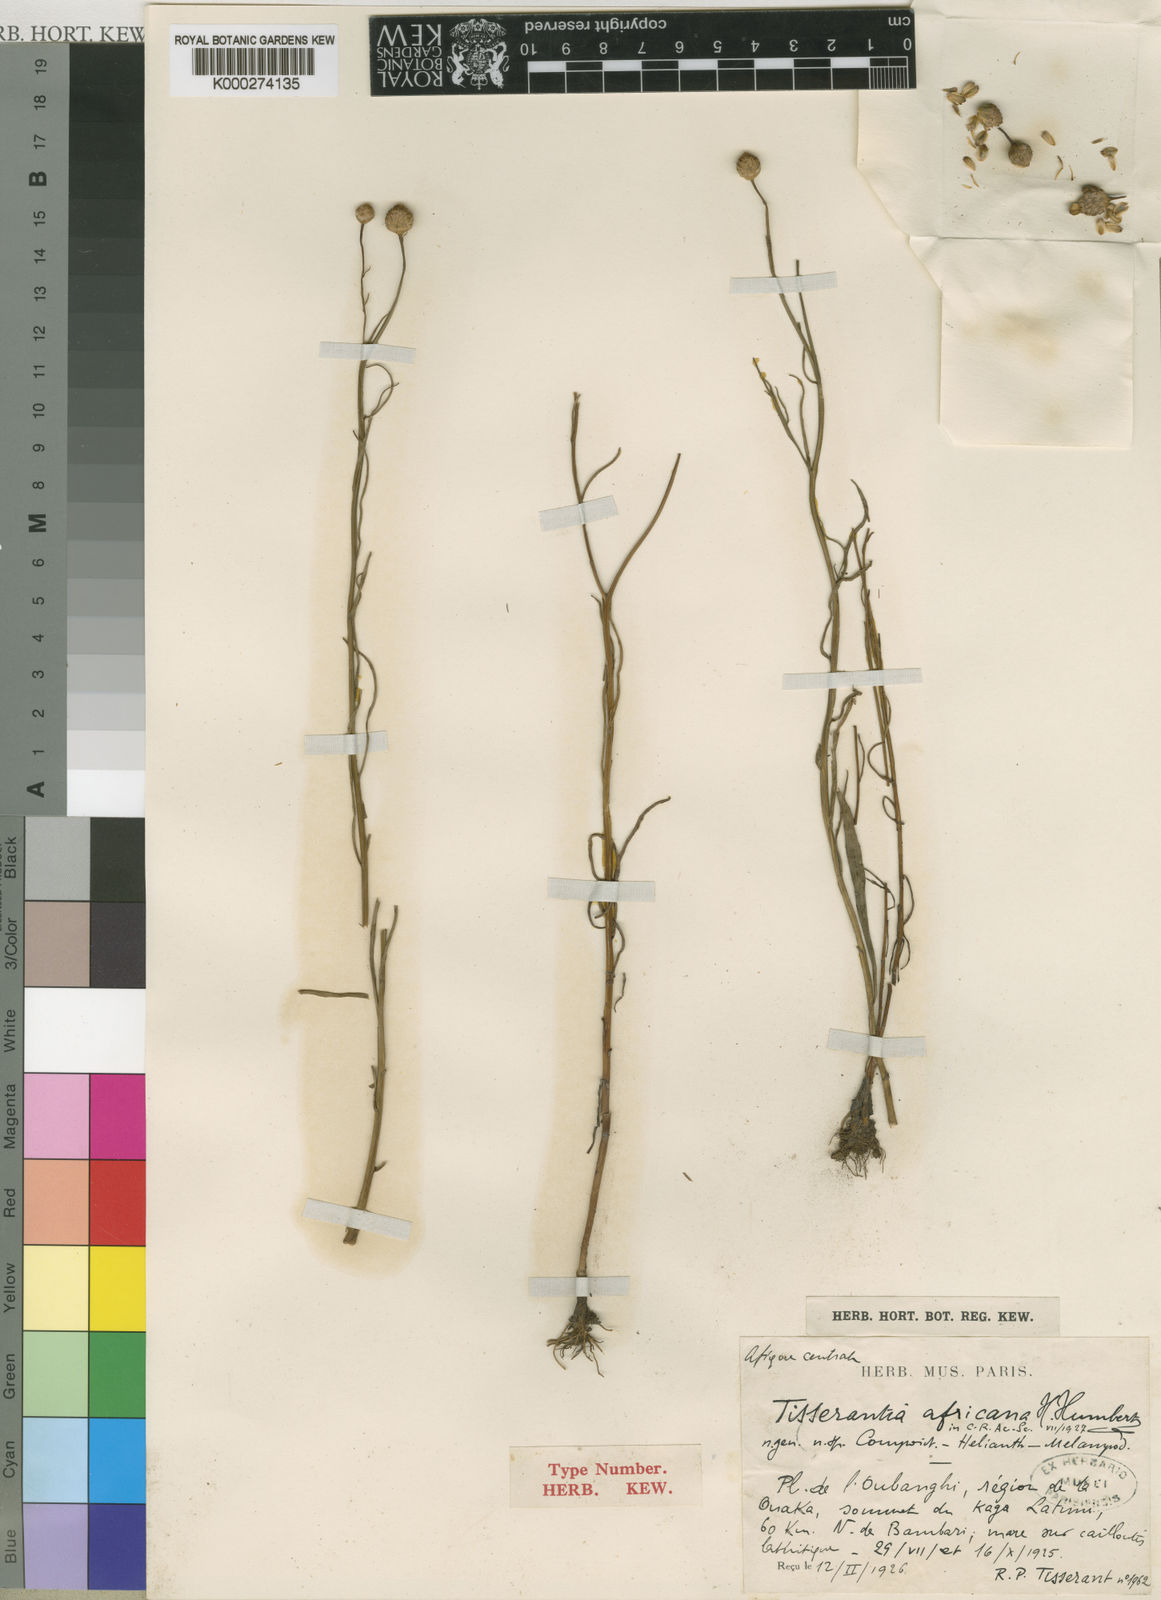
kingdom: Plantae
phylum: Tracheophyta
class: Magnoliopsida
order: Asterales
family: Asteraceae
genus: Sphaeranthus
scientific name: Sphaeranthus
